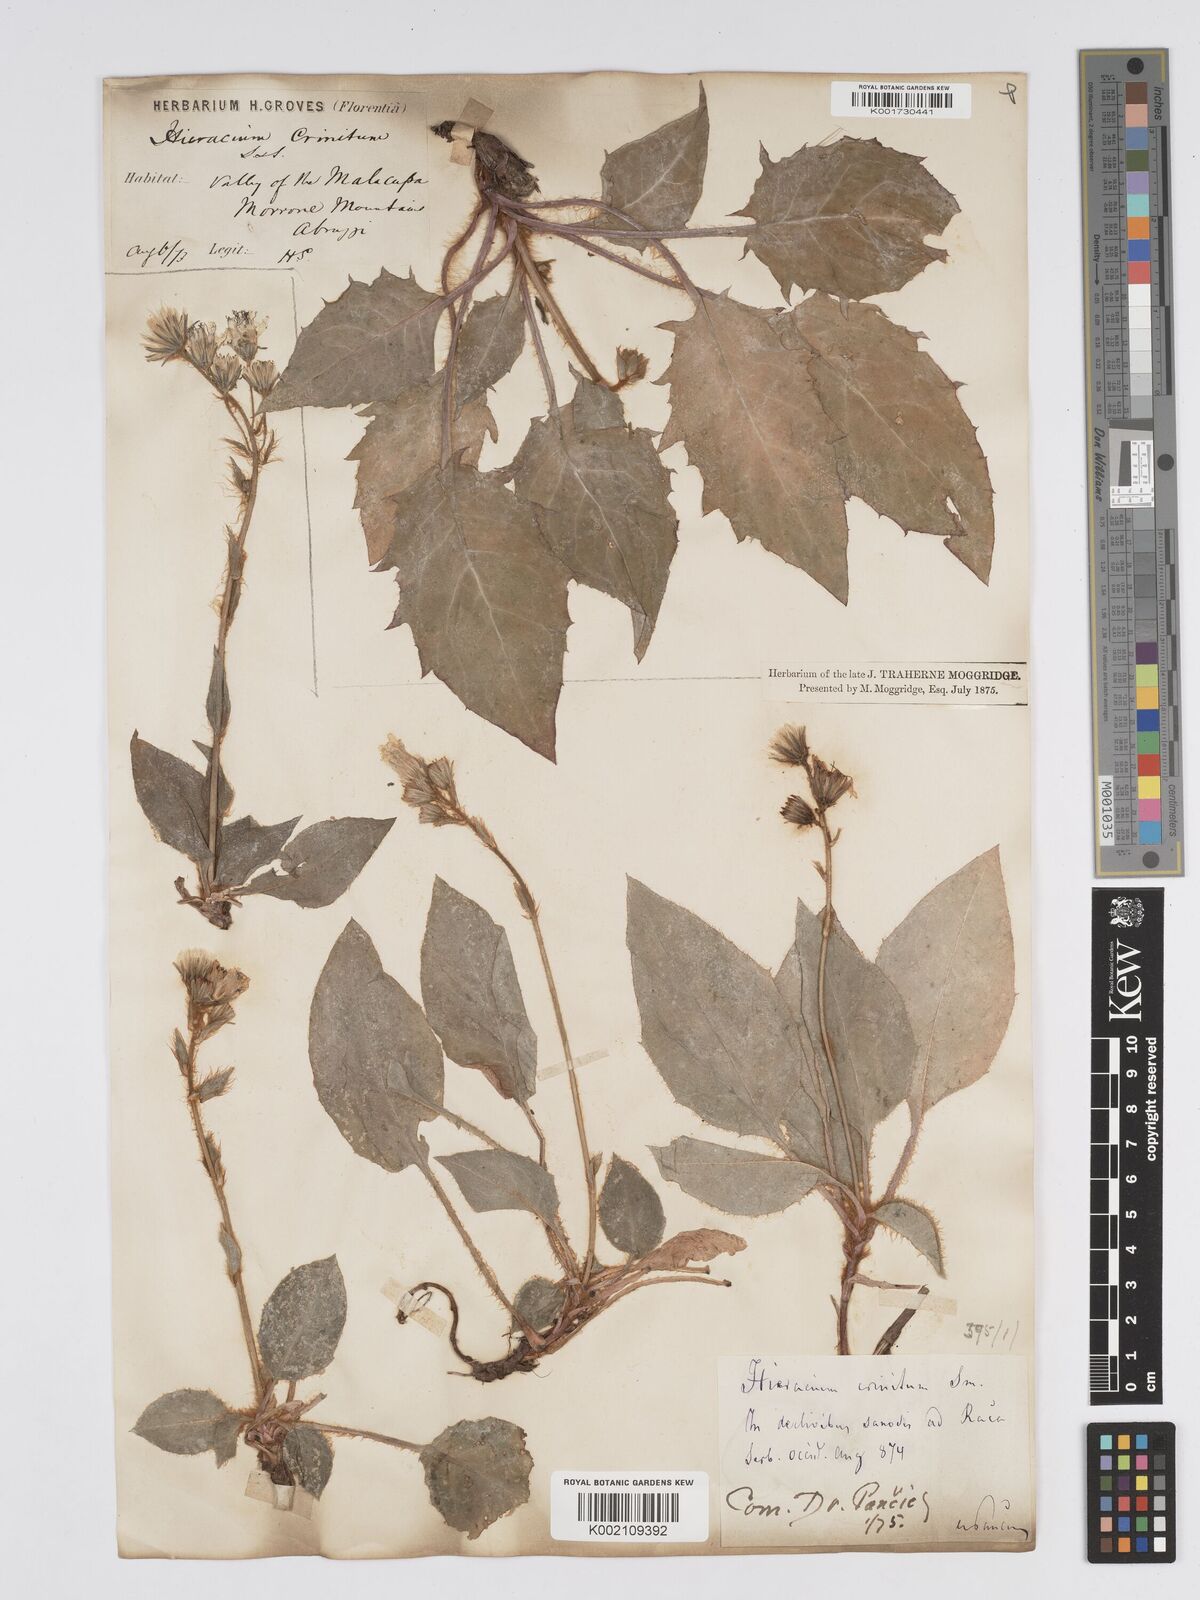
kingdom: Plantae
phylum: Tracheophyta
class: Magnoliopsida
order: Asterales
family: Asteraceae
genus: Hieracium
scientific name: Hieracium racemosum
